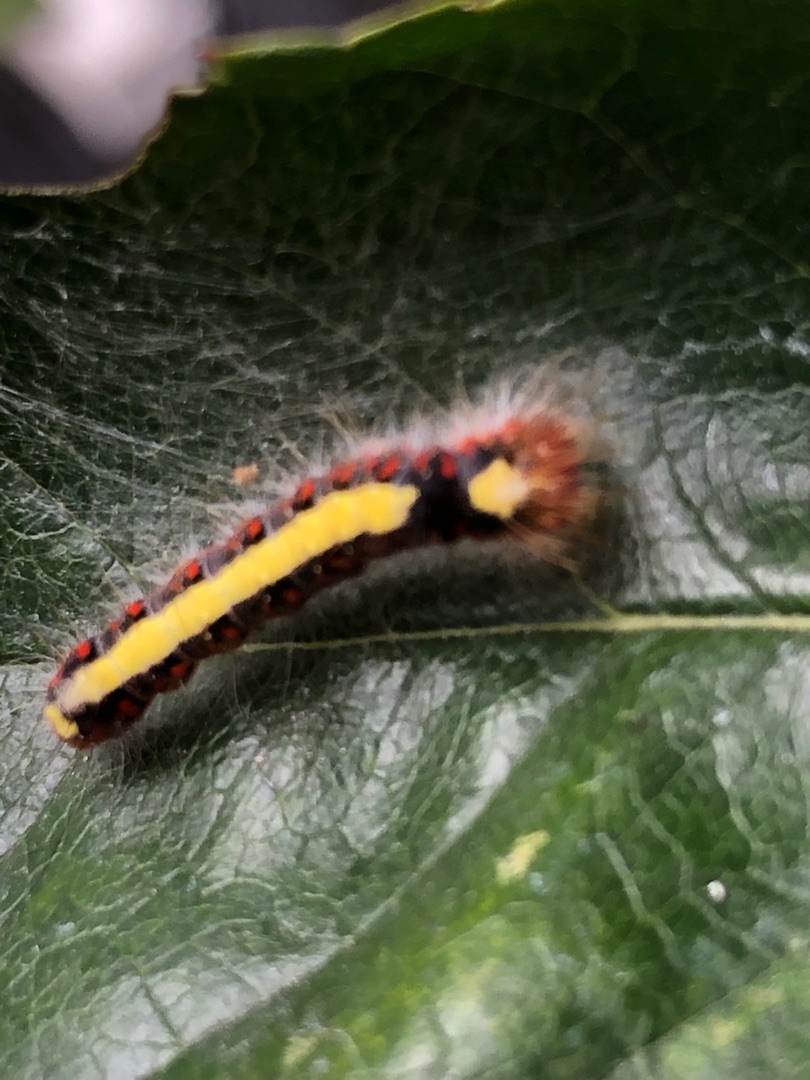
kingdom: Animalia
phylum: Arthropoda
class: Insecta
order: Lepidoptera
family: Noctuidae
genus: Acronicta
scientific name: Acronicta psi
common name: Psi-ugle
